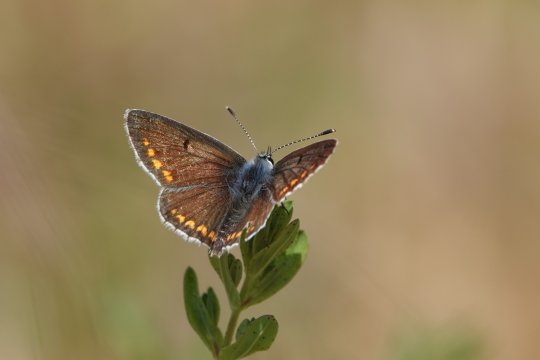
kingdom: Animalia
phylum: Arthropoda
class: Insecta
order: Lepidoptera
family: Lycaenidae
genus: Aricia
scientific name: Aricia agestis
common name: Brown Argus
